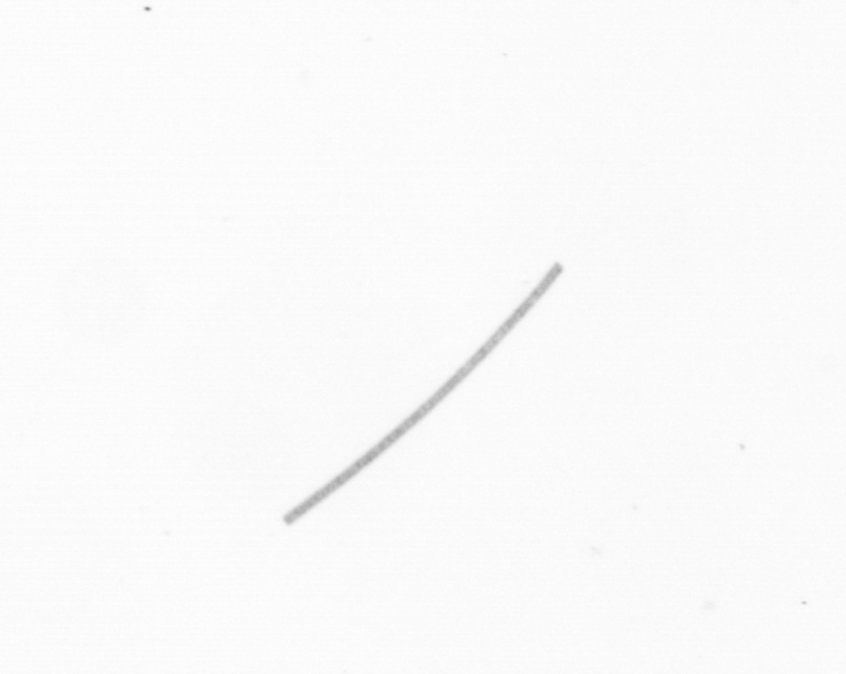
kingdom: Chromista
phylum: Ochrophyta
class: Bacillariophyceae
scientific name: Bacillariophyceae
